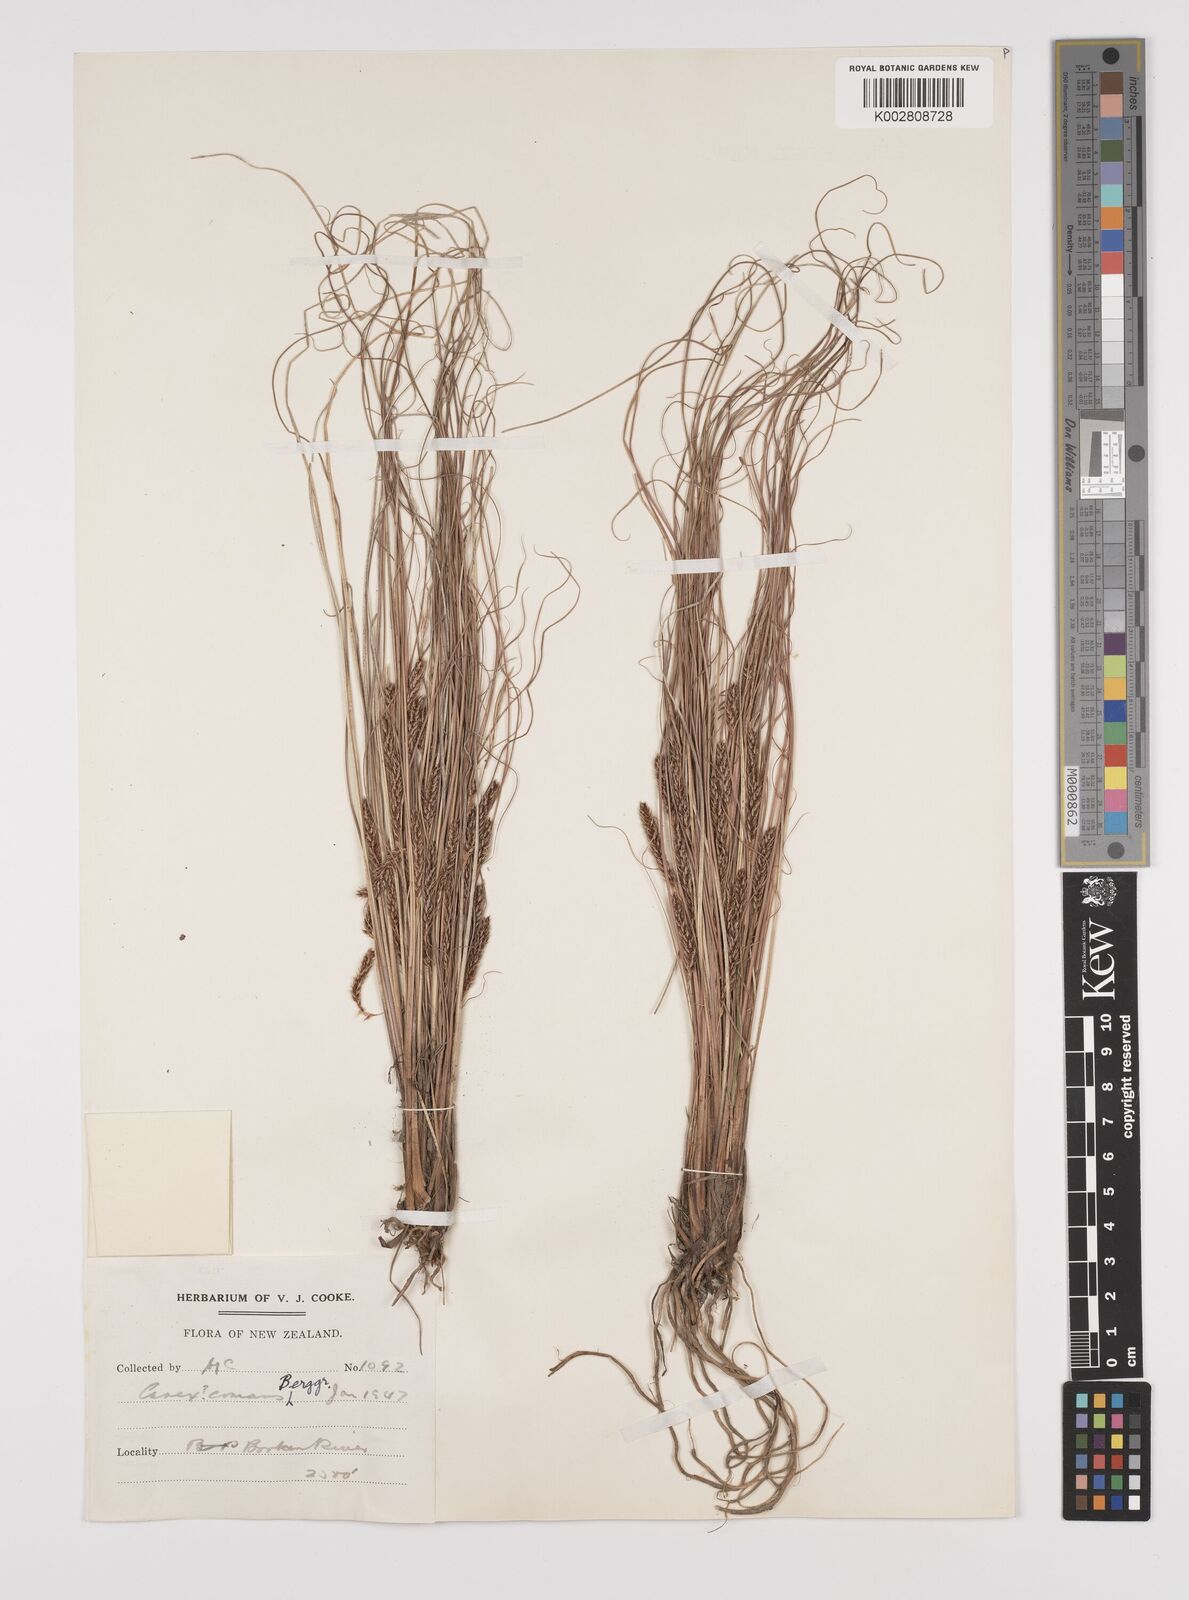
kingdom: Plantae
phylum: Tracheophyta
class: Liliopsida
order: Poales
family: Cyperaceae
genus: Carex
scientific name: Carex comans
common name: Longwood tussock
